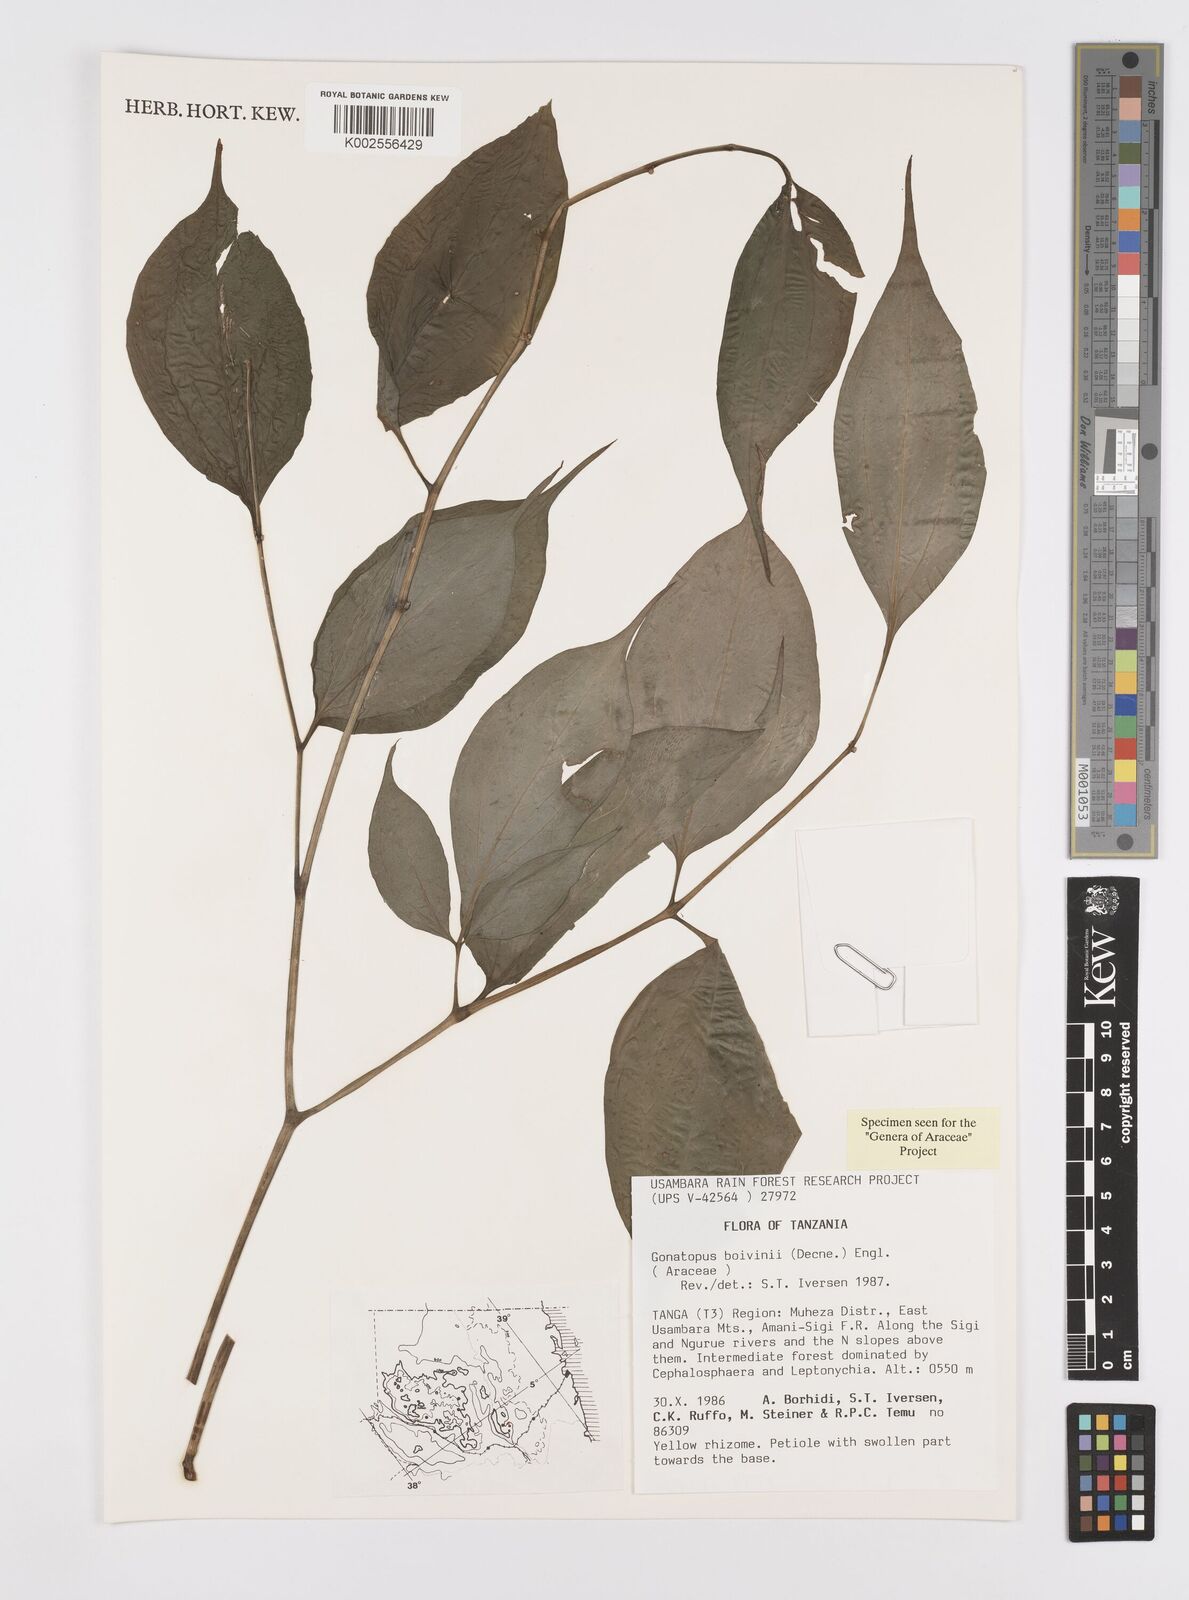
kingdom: Plantae
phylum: Tracheophyta
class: Liliopsida
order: Alismatales
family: Araceae
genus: Gonatopus
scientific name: Gonatopus boivinii
